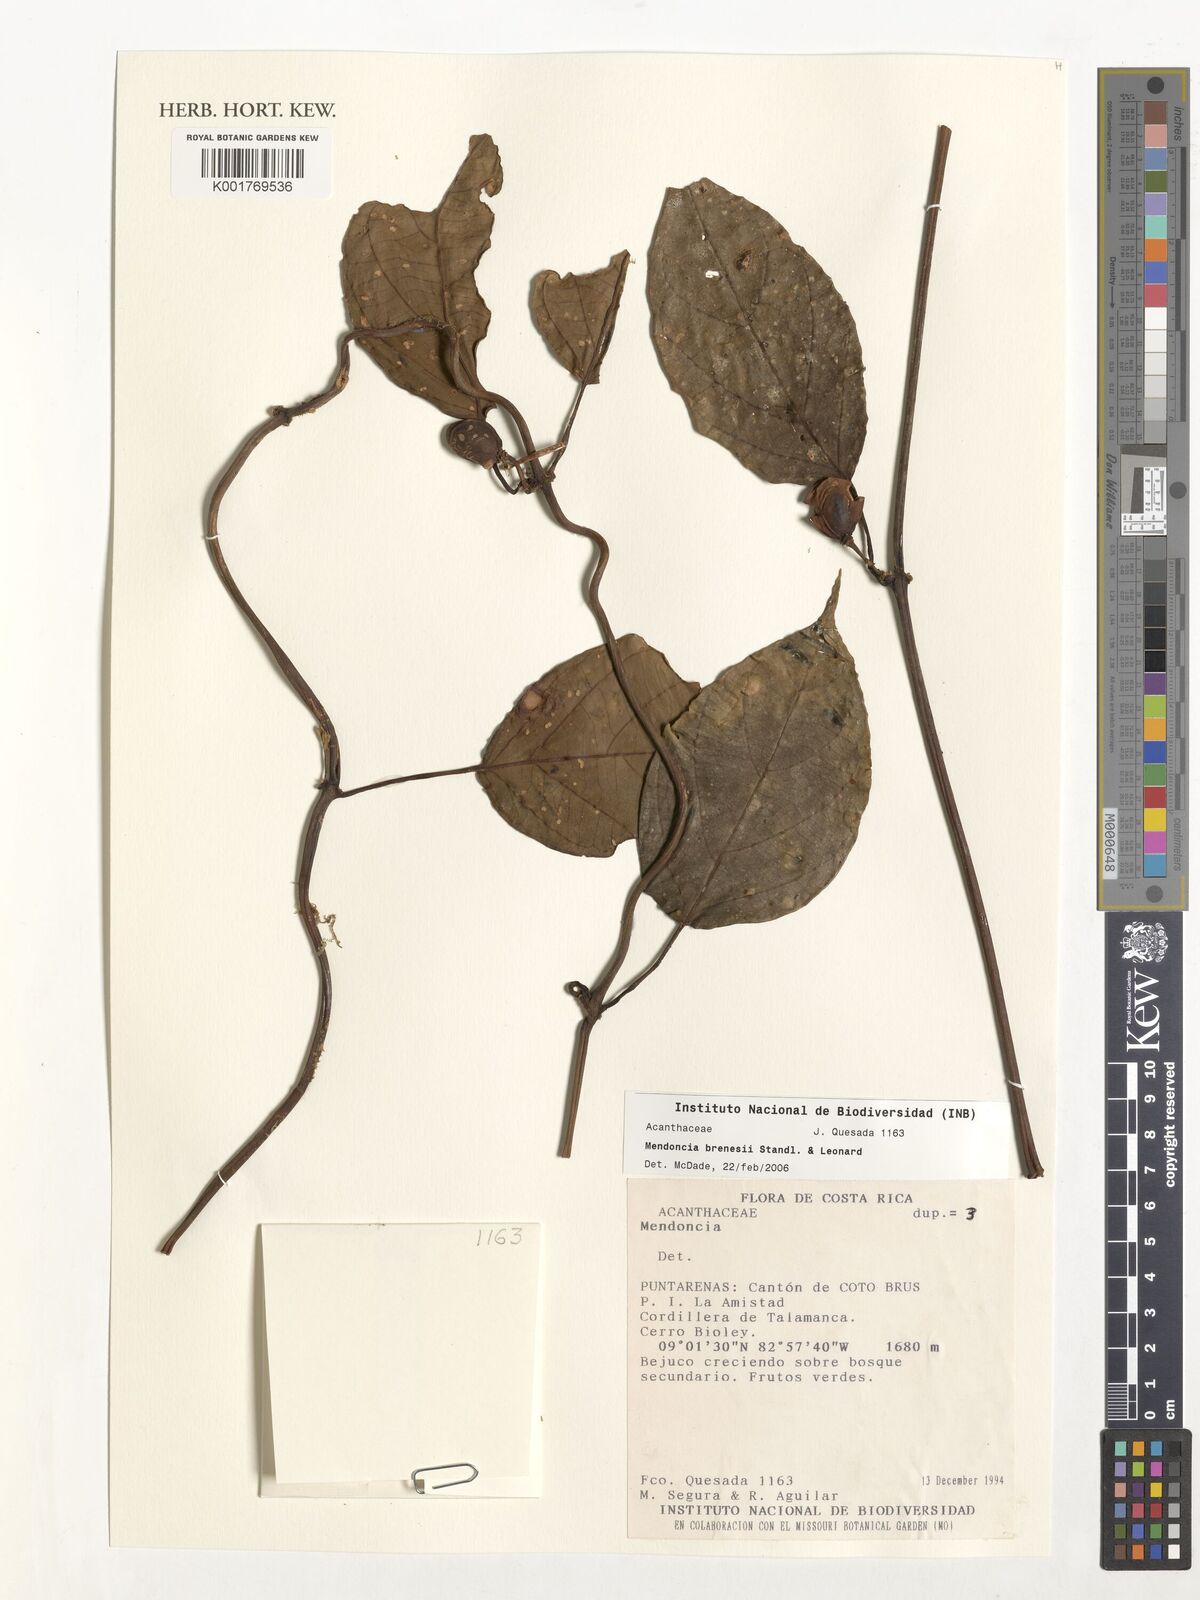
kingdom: Plantae
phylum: Tracheophyta
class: Magnoliopsida
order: Lamiales
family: Acanthaceae
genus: Mendoncia
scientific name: Mendoncia brenesii
